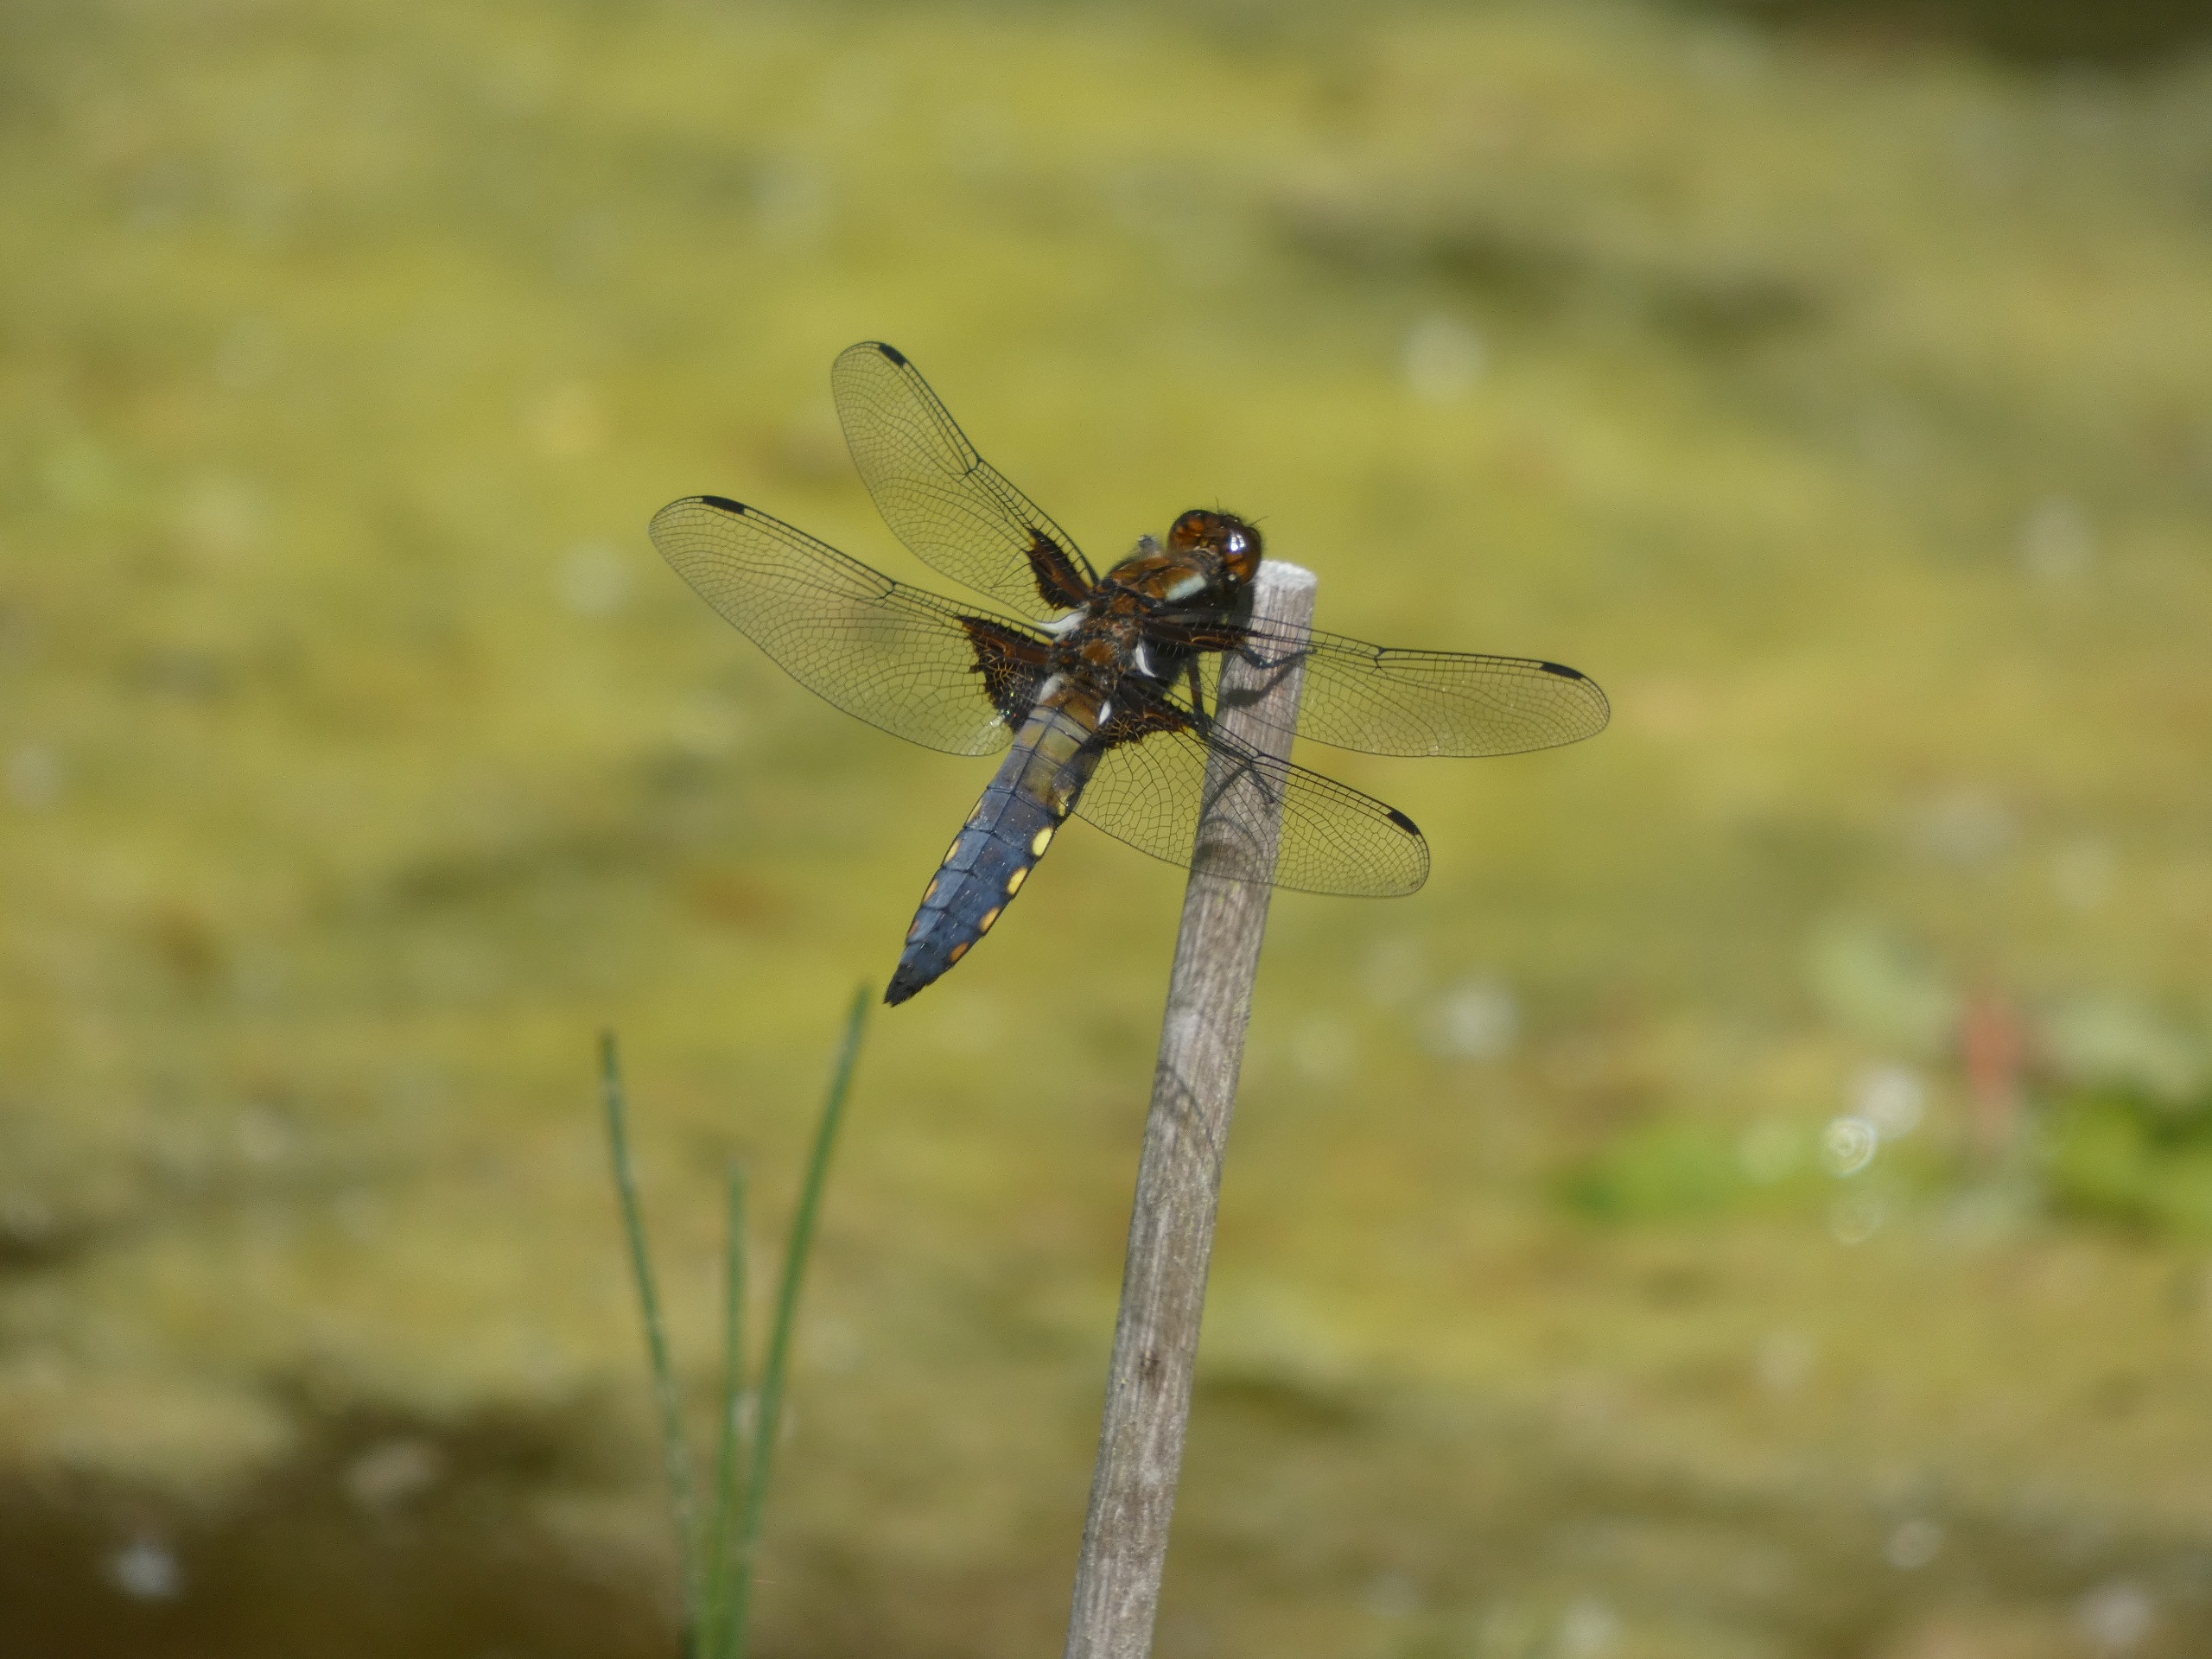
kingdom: Animalia
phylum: Arthropoda
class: Insecta
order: Odonata
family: Libellulidae
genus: Libellula
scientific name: Libellula depressa
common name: Blå libel
